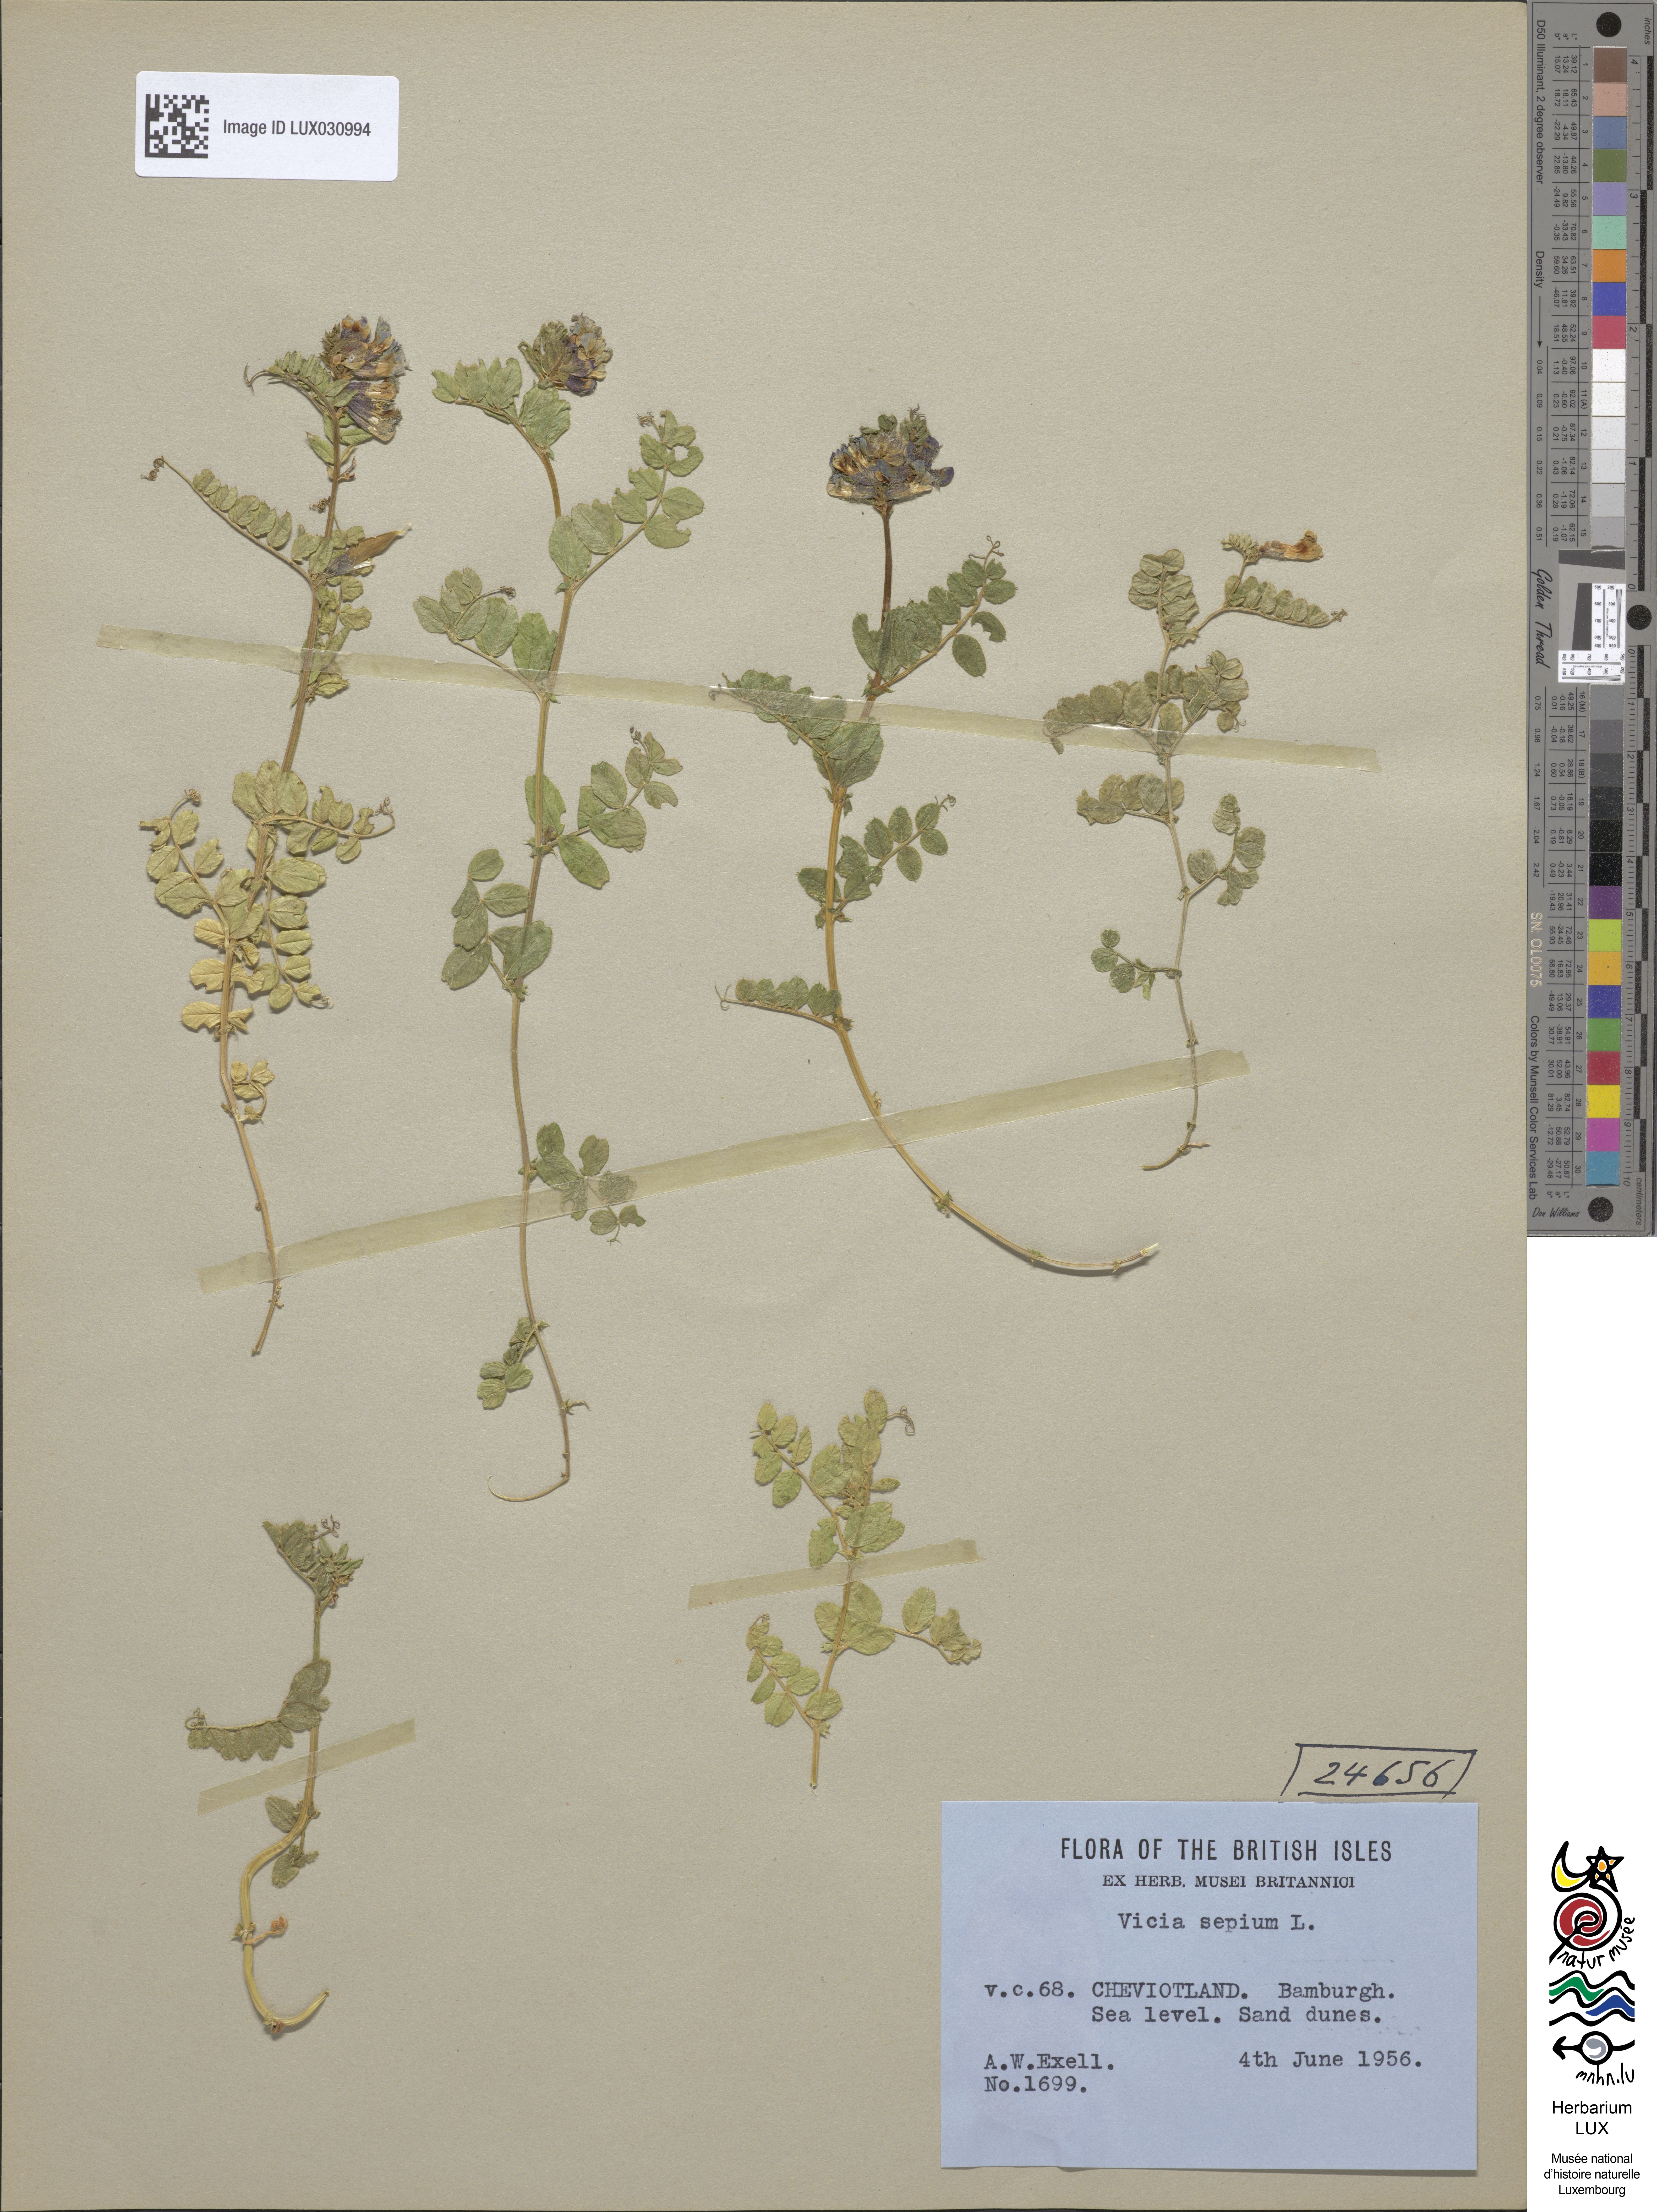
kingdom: Plantae
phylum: Tracheophyta
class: Magnoliopsida
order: Fabales
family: Fabaceae
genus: Vicia
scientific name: Vicia sepium
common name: Bush vetch
